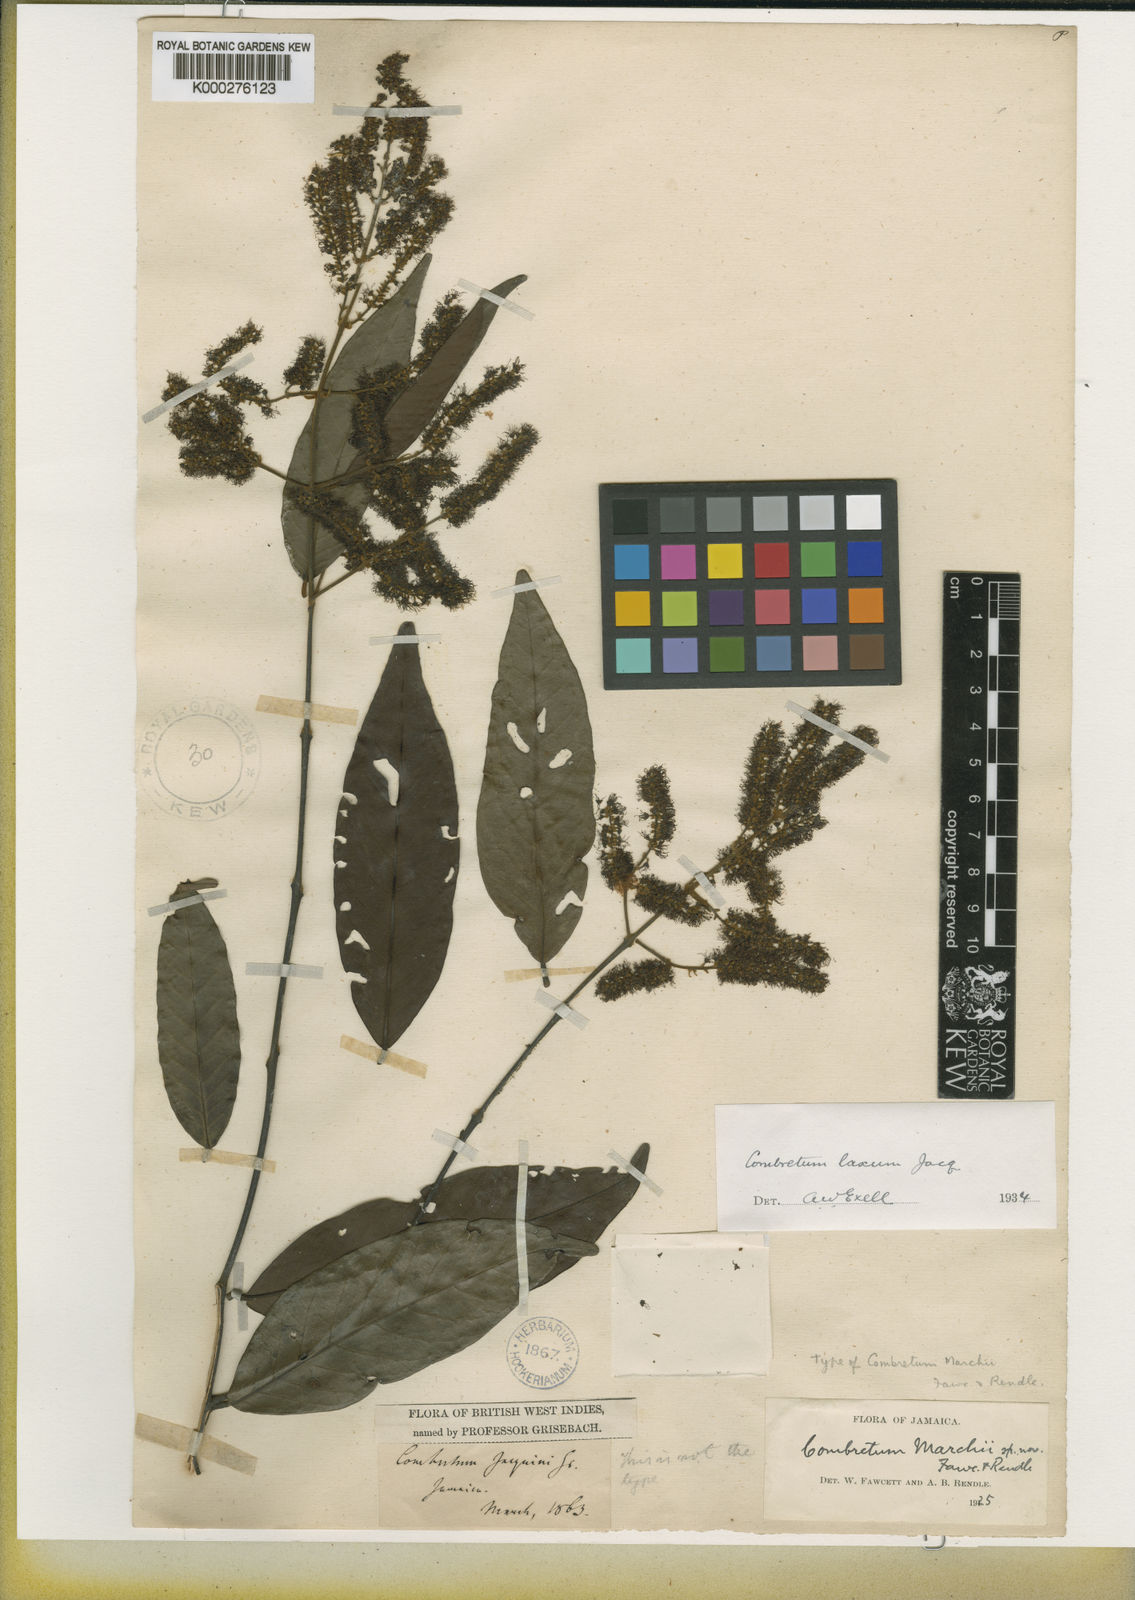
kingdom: Plantae
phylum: Tracheophyta
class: Magnoliopsida
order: Myrtales
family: Combretaceae
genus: Combretum
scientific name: Combretum laxum
